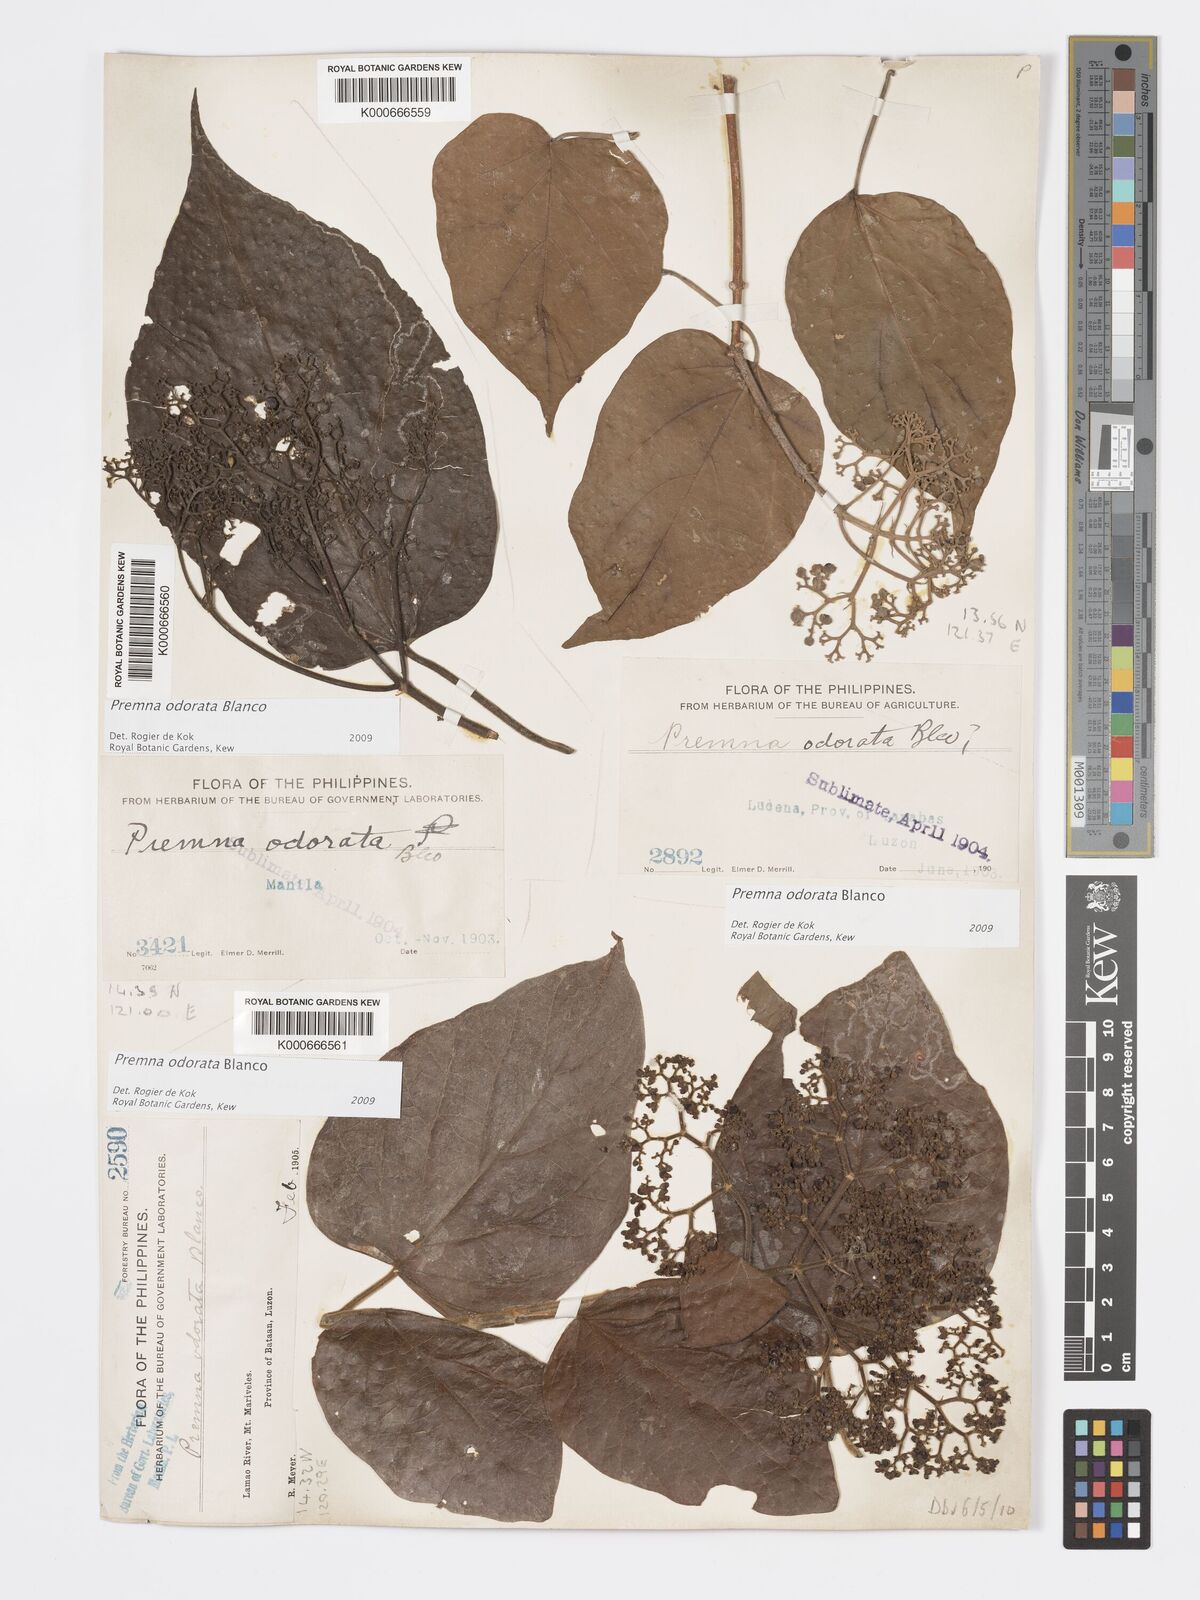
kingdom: Plantae
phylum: Tracheophyta
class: Magnoliopsida
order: Lamiales
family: Lamiaceae
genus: Premna
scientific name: Premna odorata
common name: Fragrant premna
